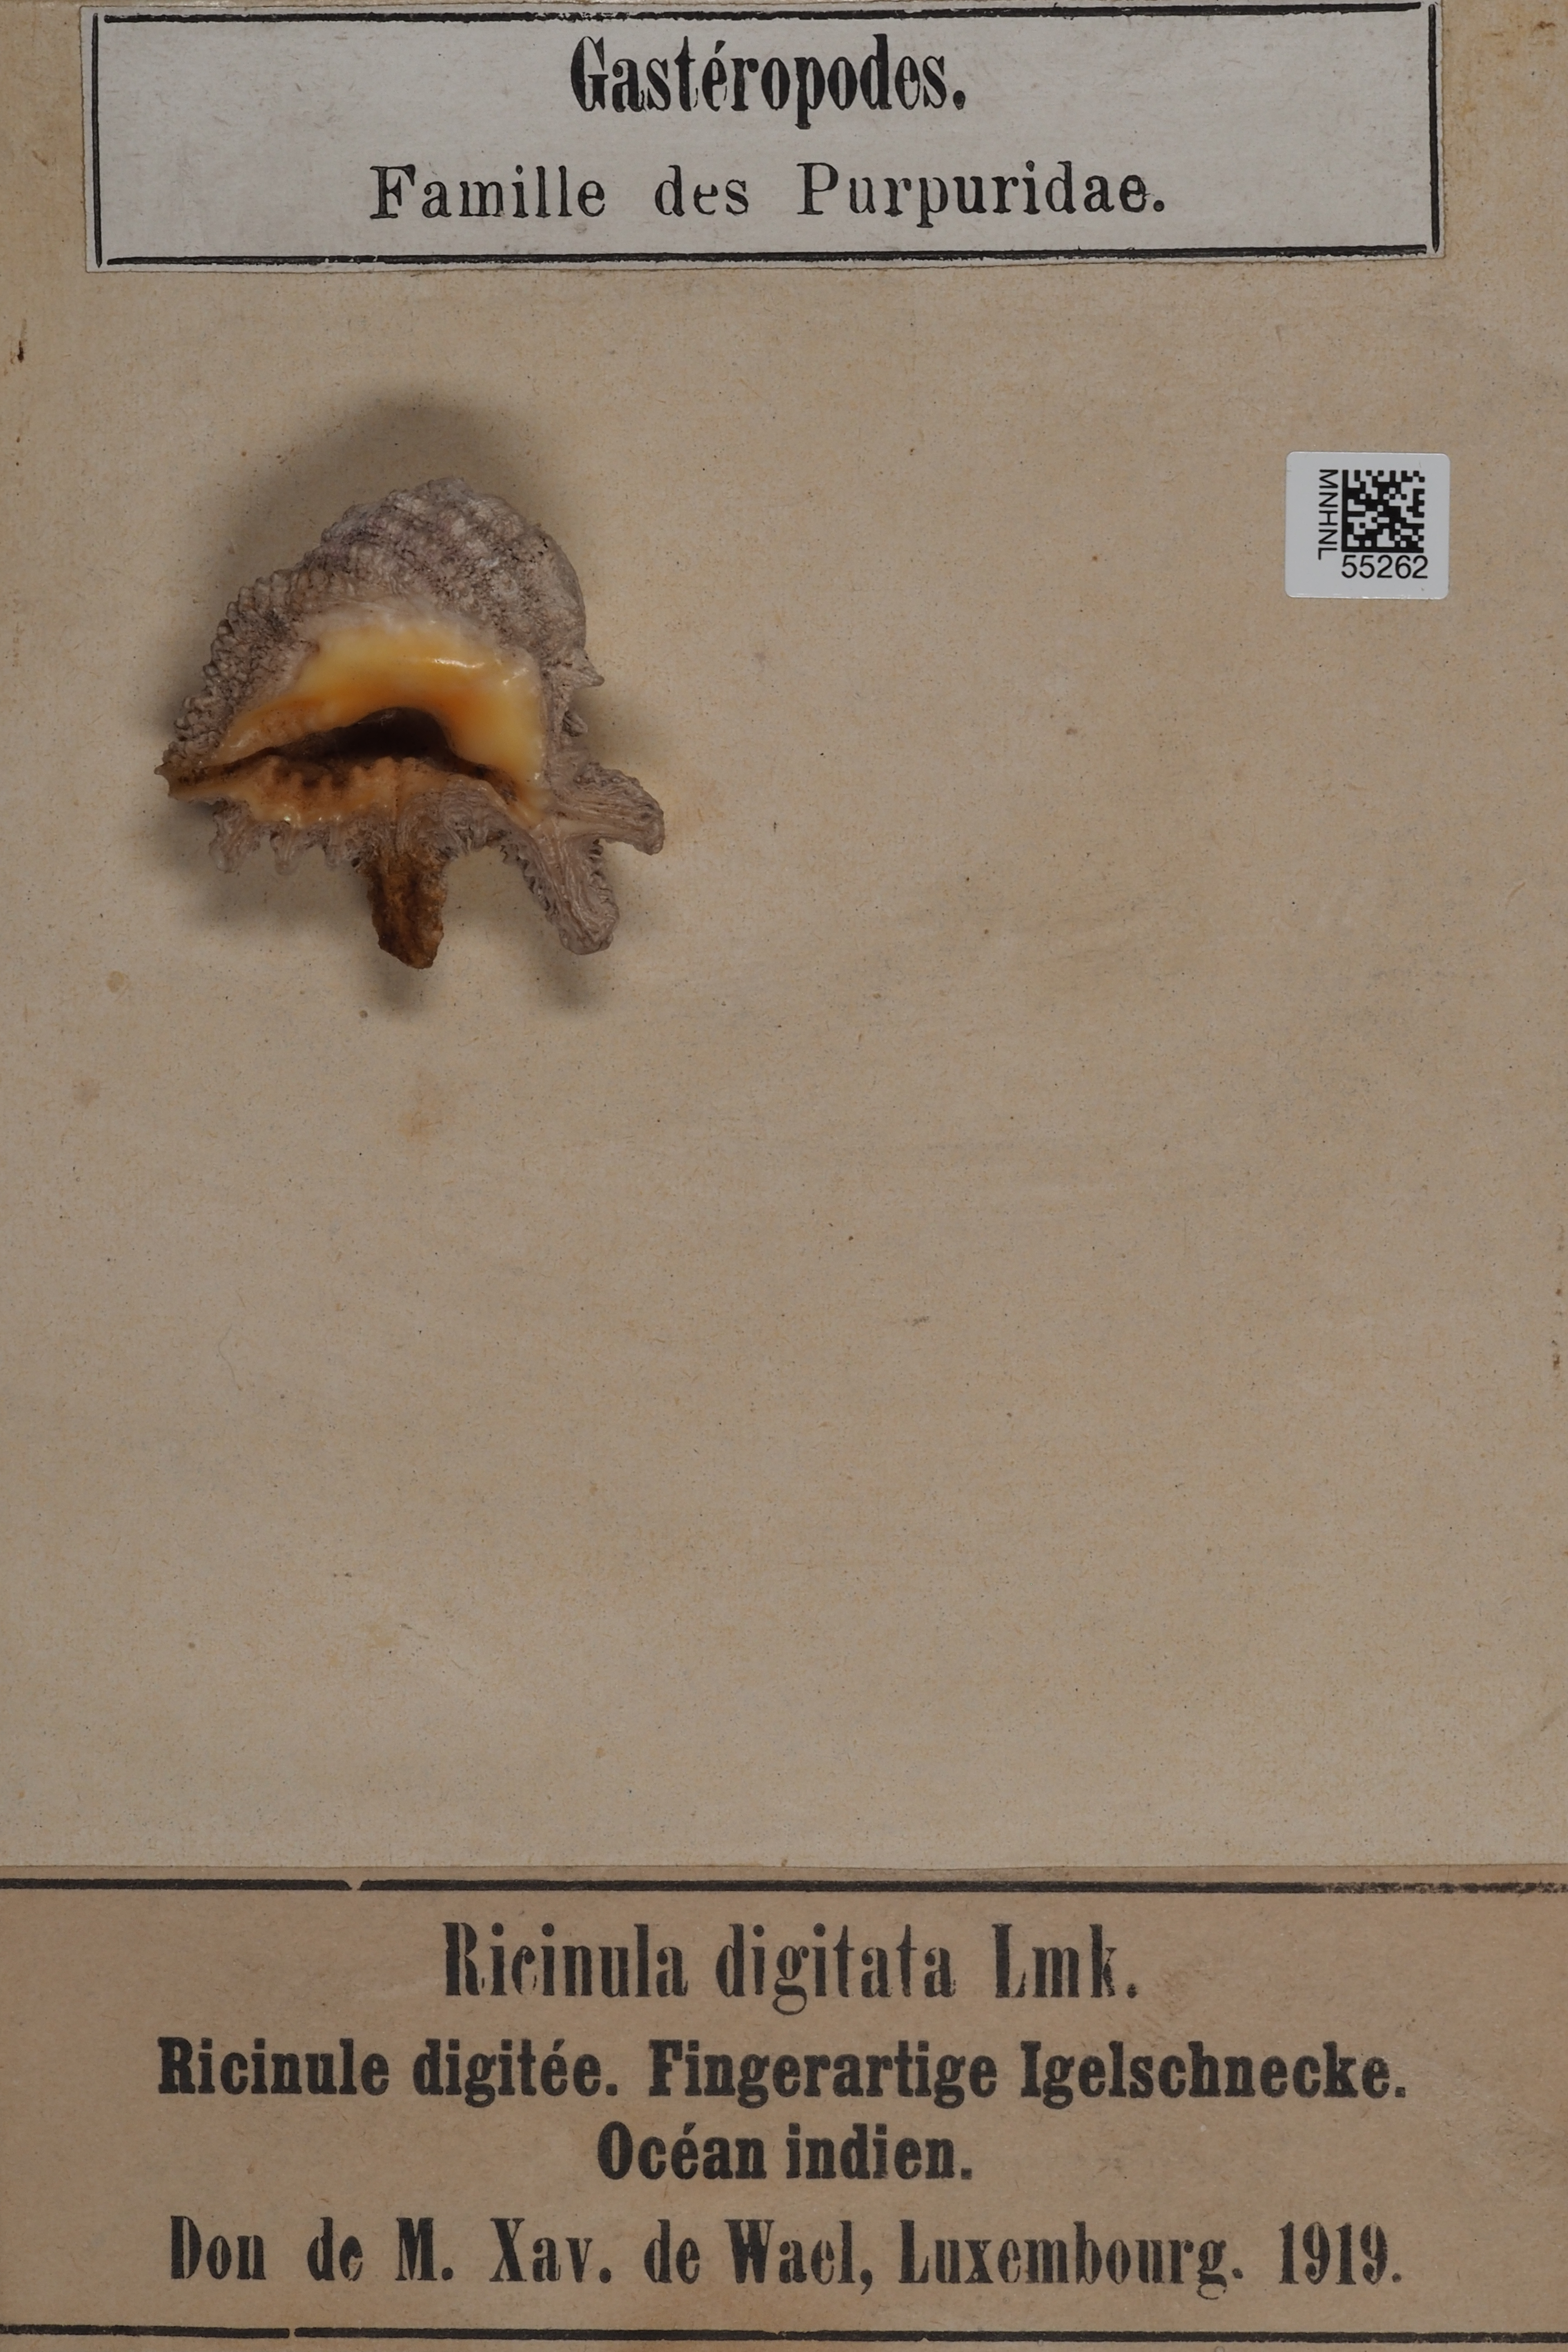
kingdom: Animalia
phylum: Mollusca
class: Gastropoda
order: Neogastropoda
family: Muricidae
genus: Drupina
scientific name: Drupina grossularia
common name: Digitate pacific drupe
